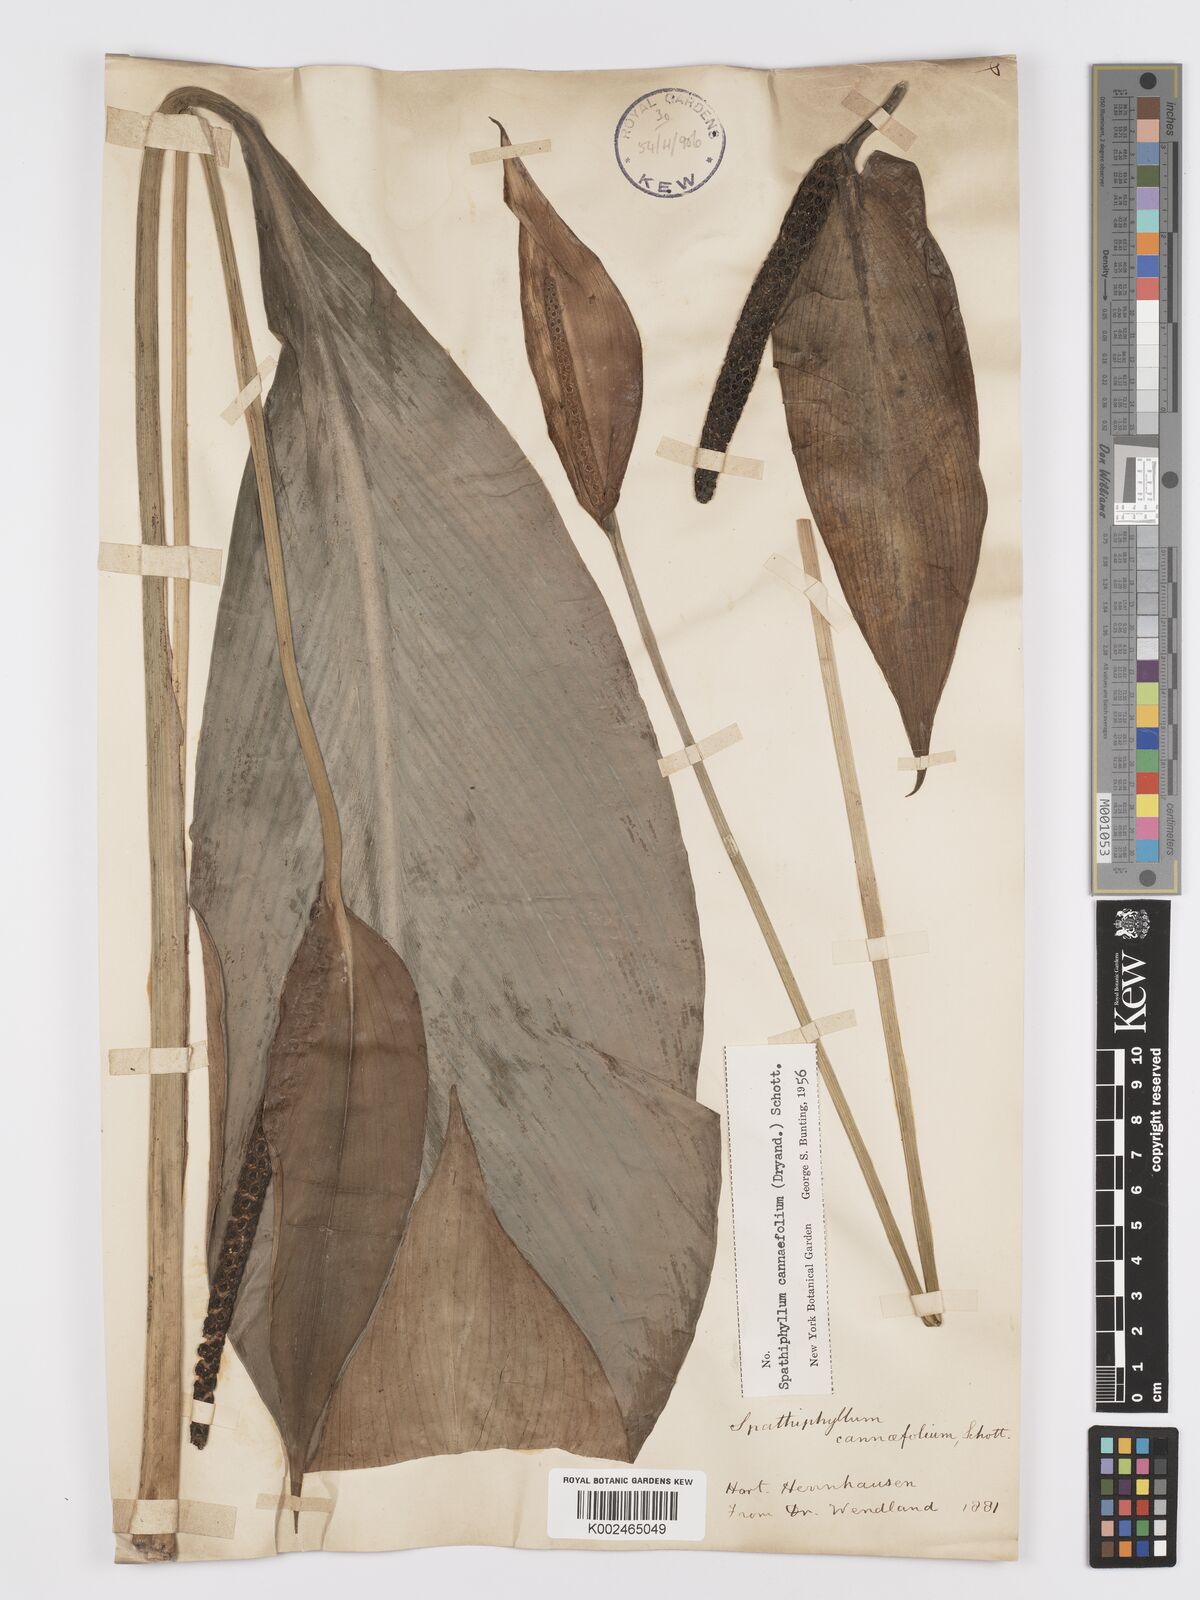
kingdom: Plantae
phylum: Tracheophyta
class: Liliopsida
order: Alismatales
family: Araceae
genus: Spathiphyllum
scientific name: Spathiphyllum cannifolium
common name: Spatheflower
